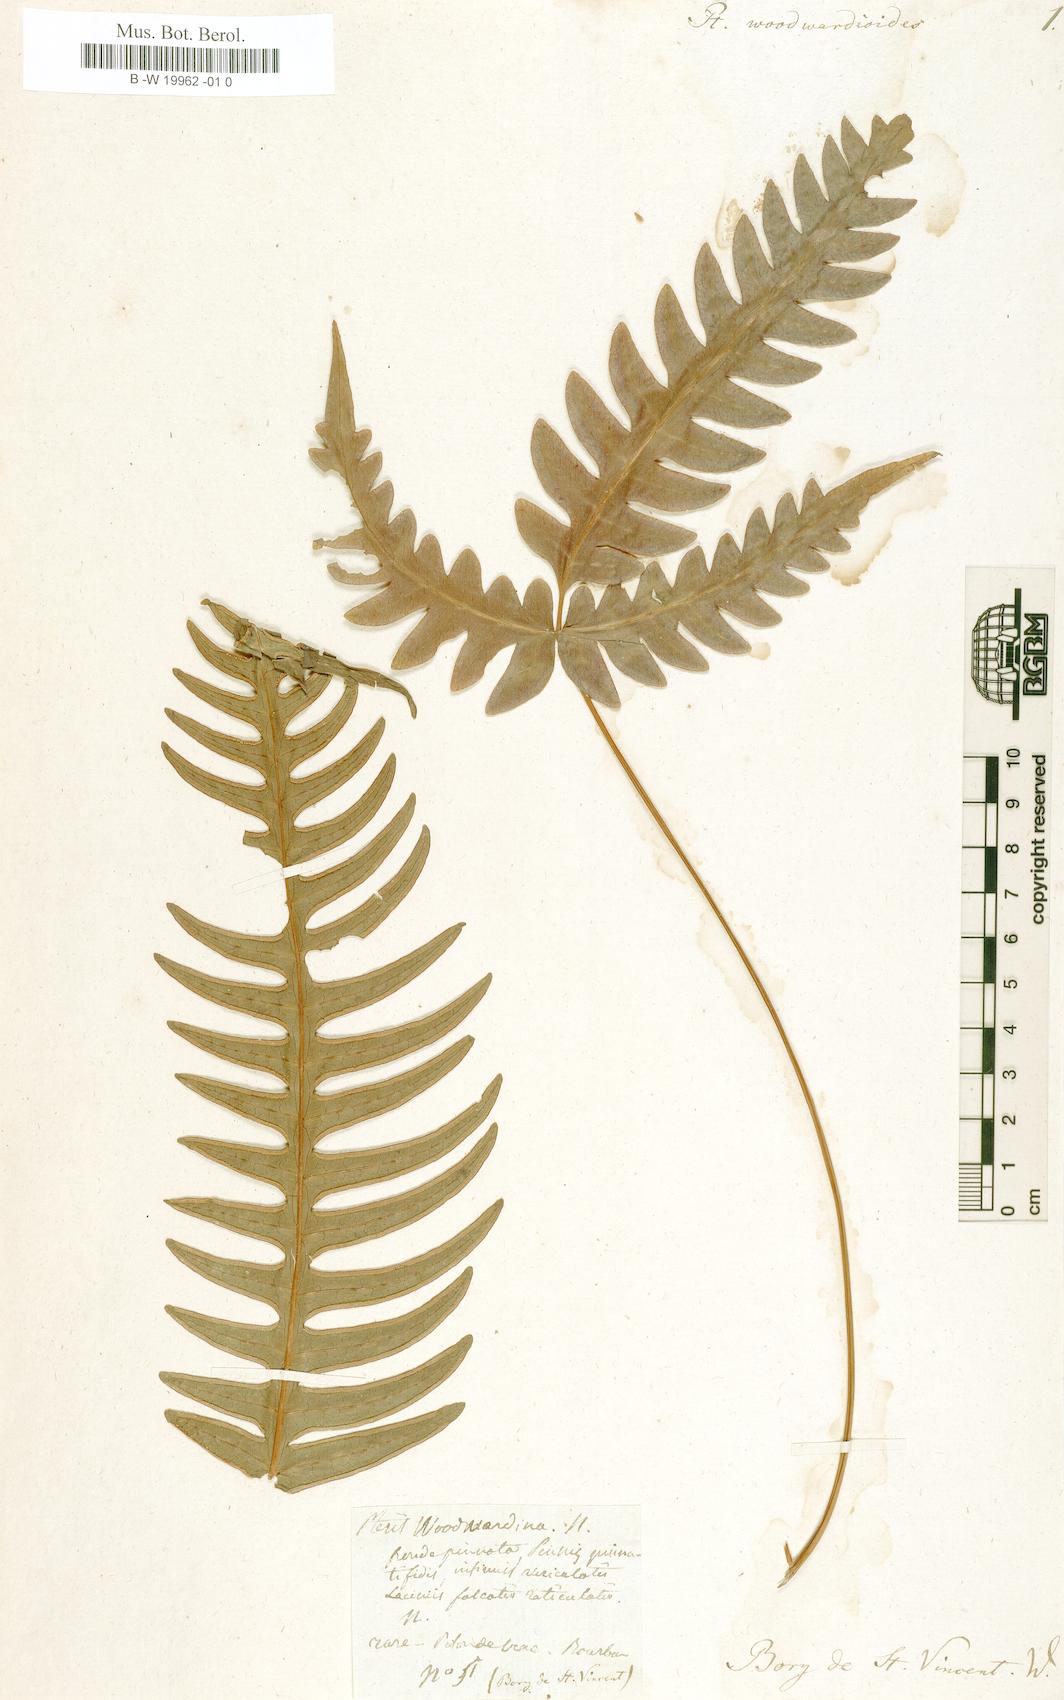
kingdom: Plantae
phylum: Tracheophyta
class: Polypodiopsida
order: Polypodiales
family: Pteridaceae
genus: Pteris
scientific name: Pteris woodwardioides
